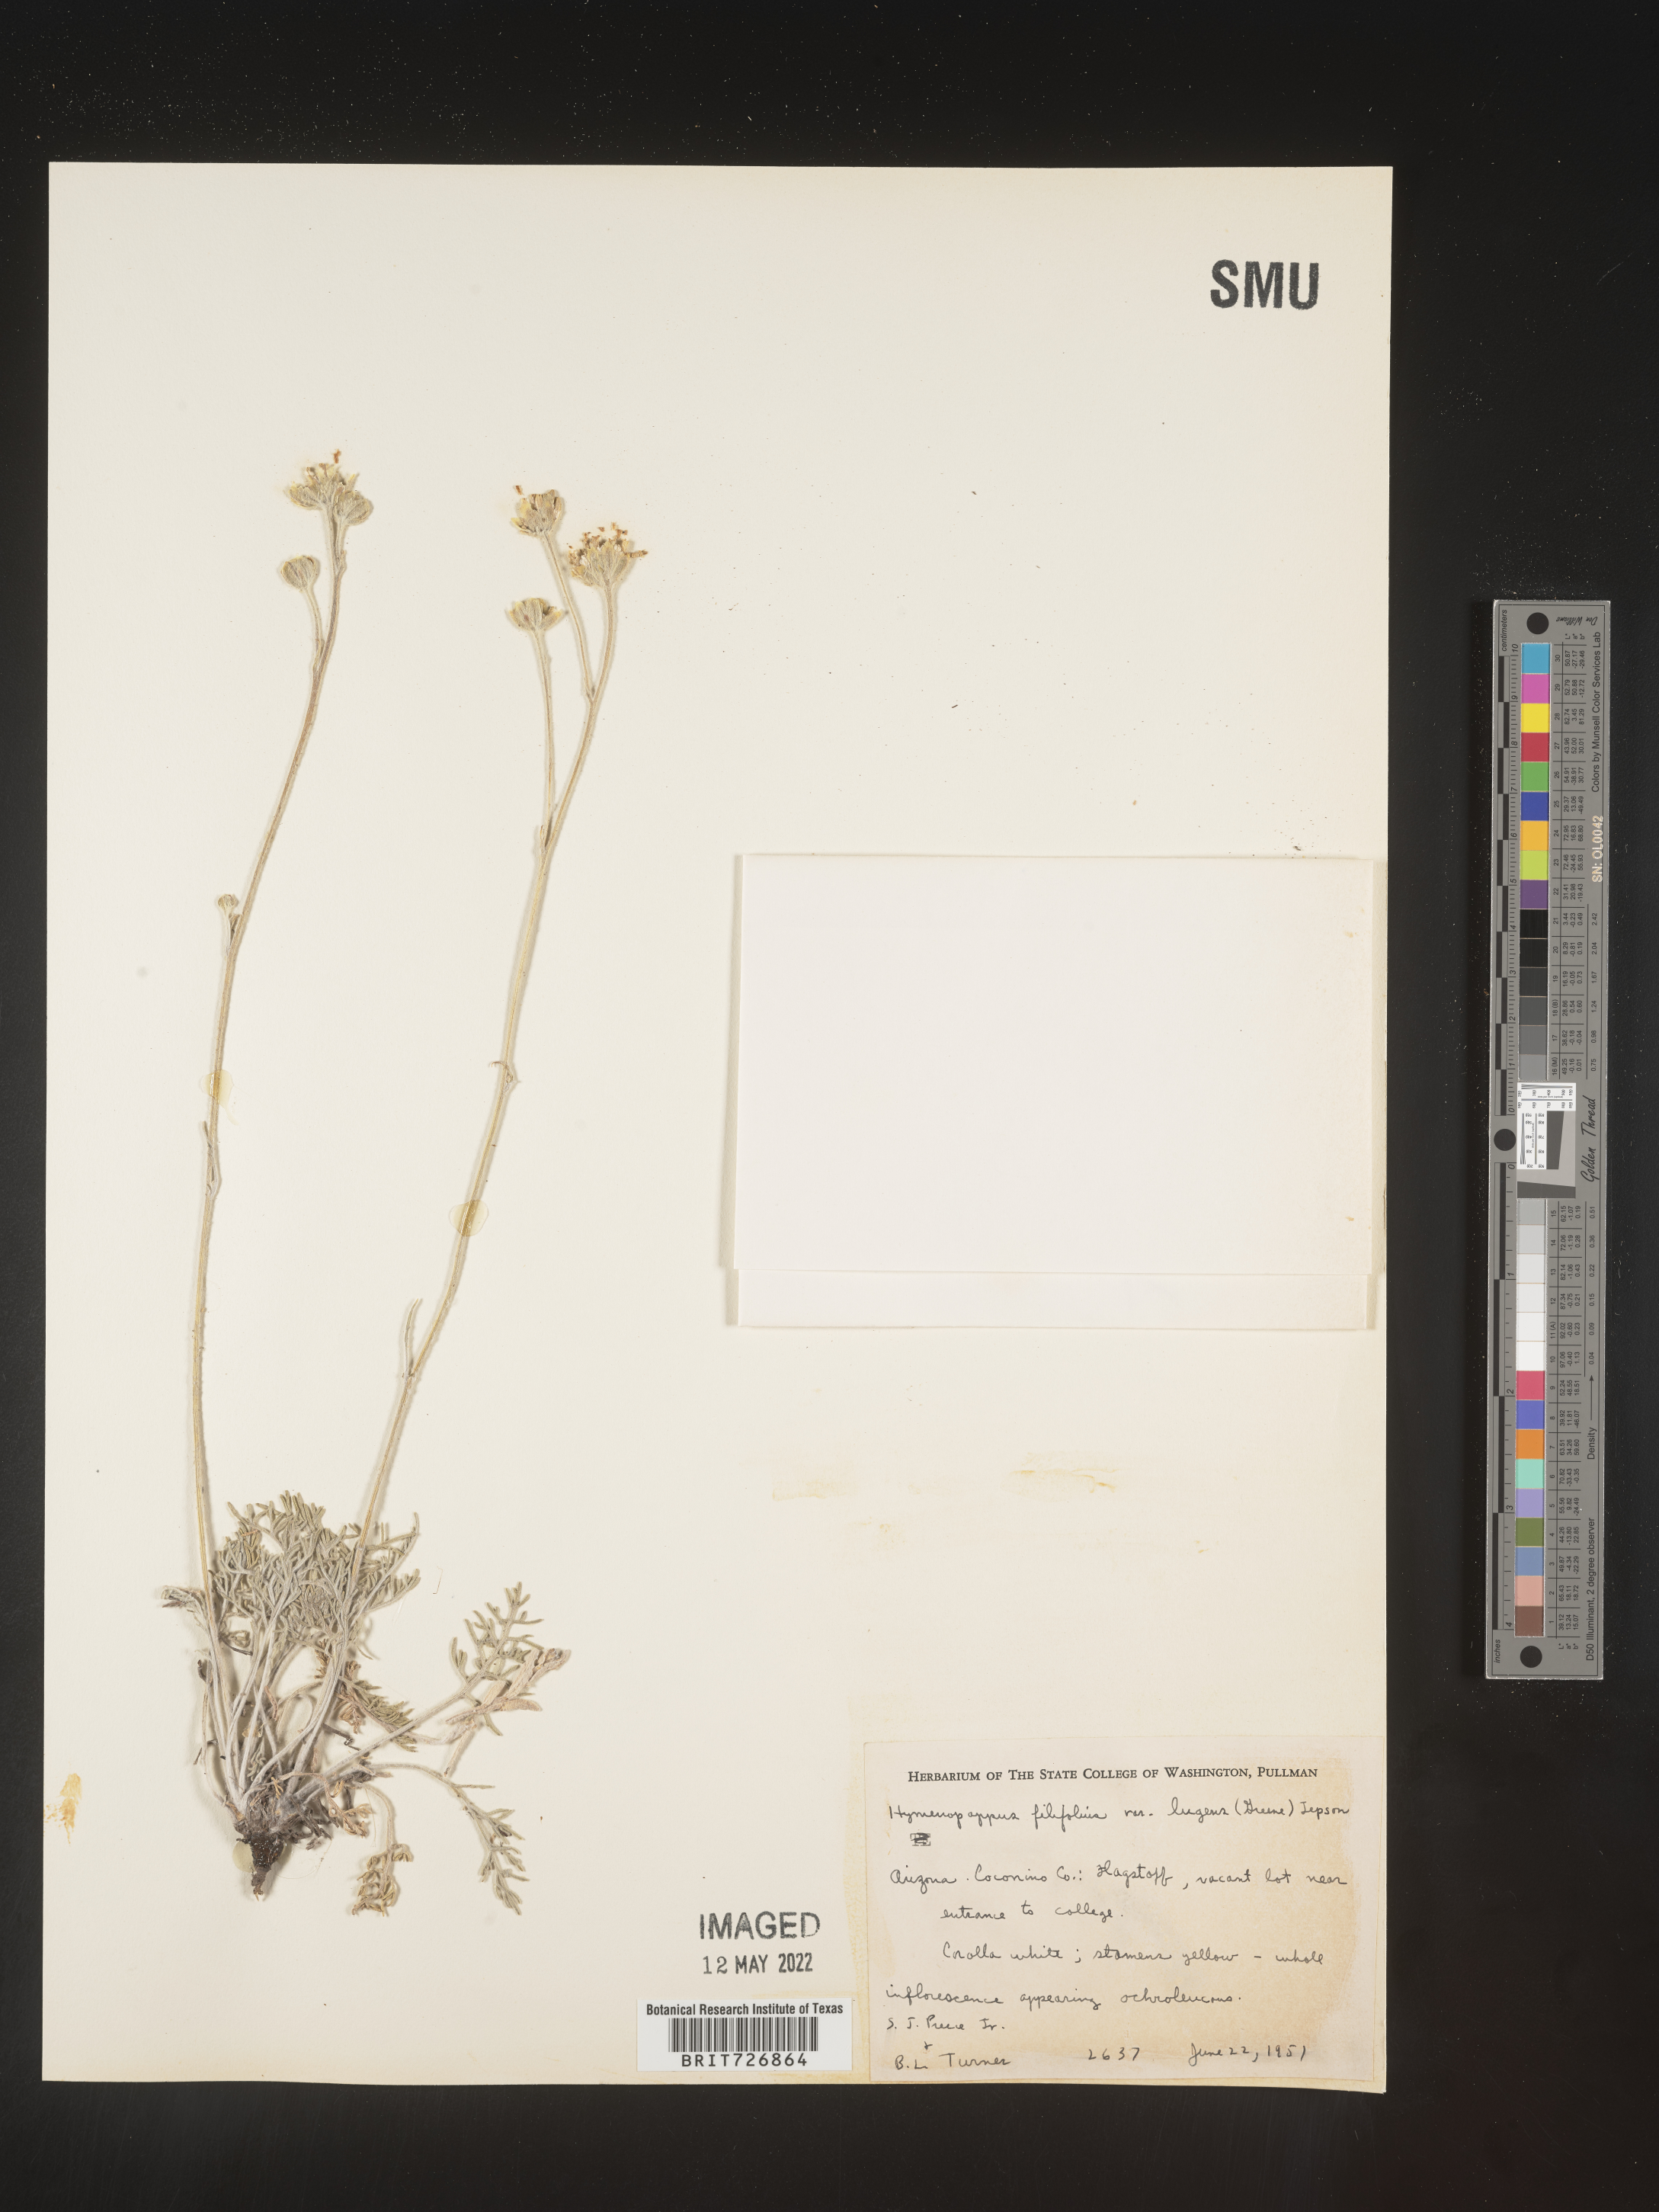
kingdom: Plantae
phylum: Tracheophyta
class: Magnoliopsida
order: Asterales
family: Asteraceae
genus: Hymenopappus
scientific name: Hymenopappus filifolius
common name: Columbia cutleaf
